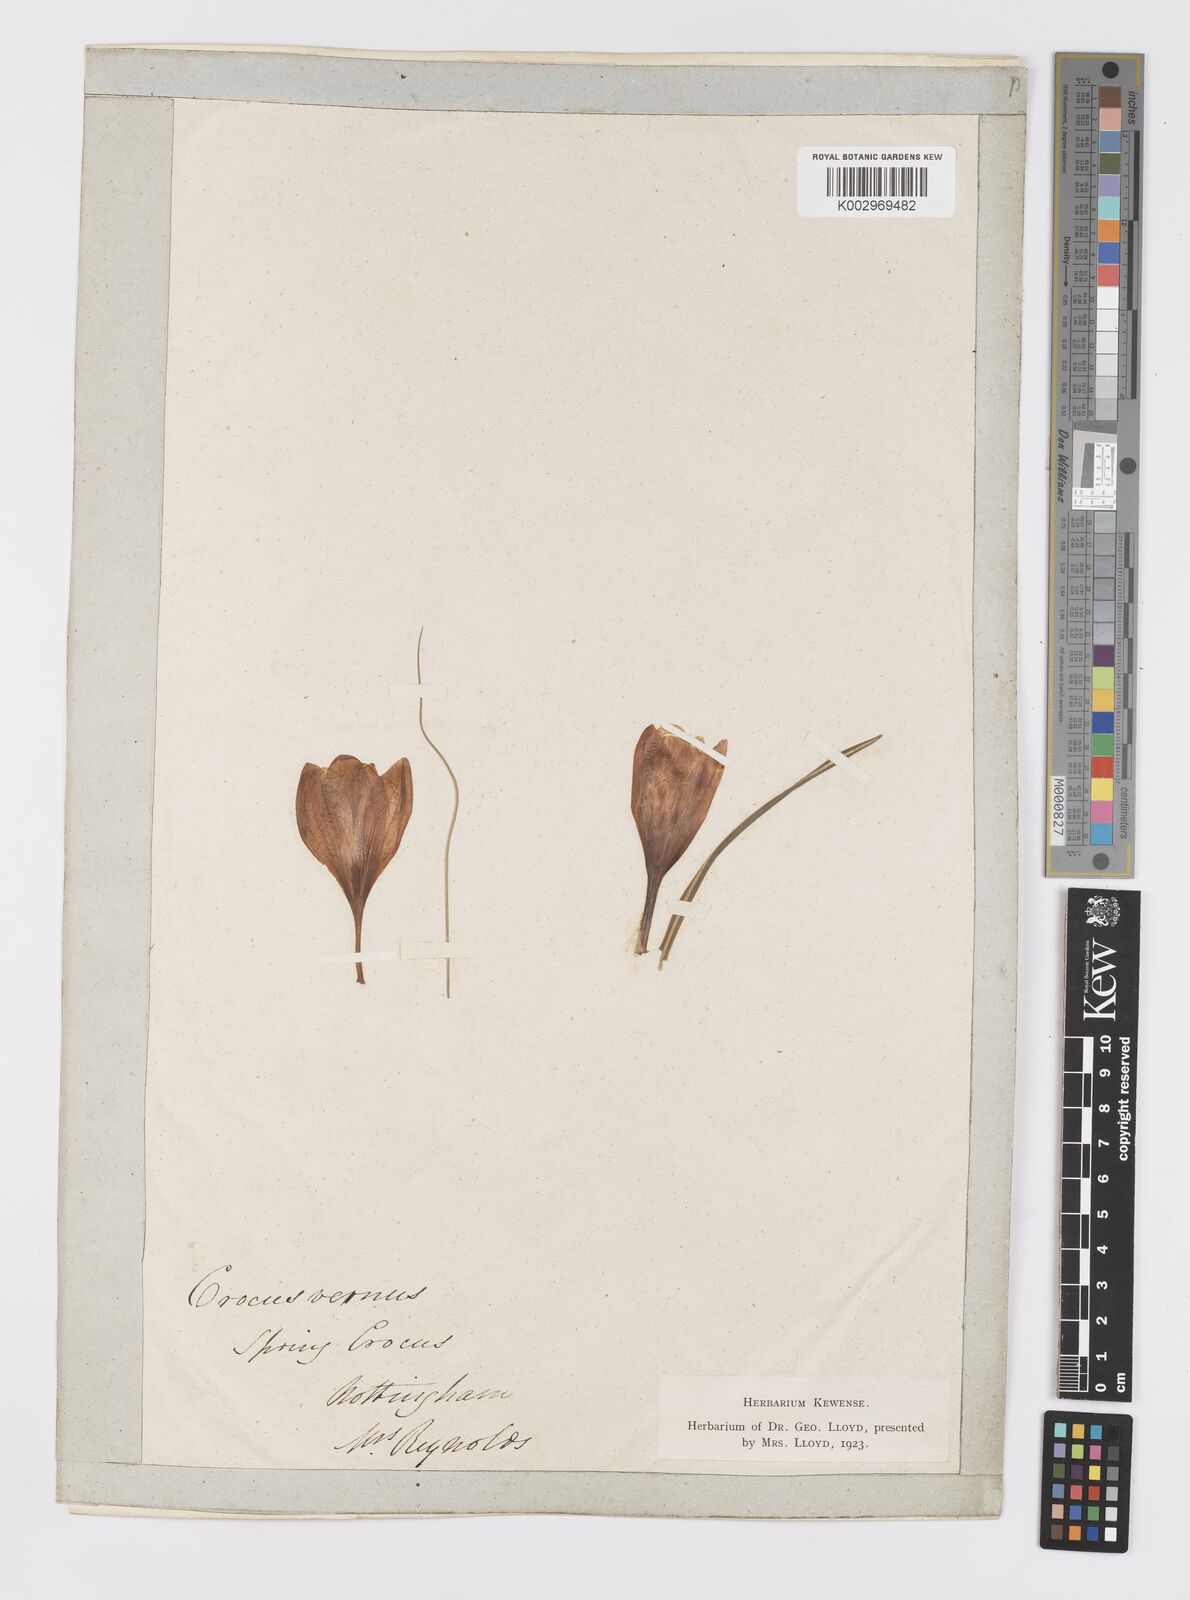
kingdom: Plantae
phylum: Tracheophyta
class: Liliopsida
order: Asparagales
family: Iridaceae
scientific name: Iridaceae
